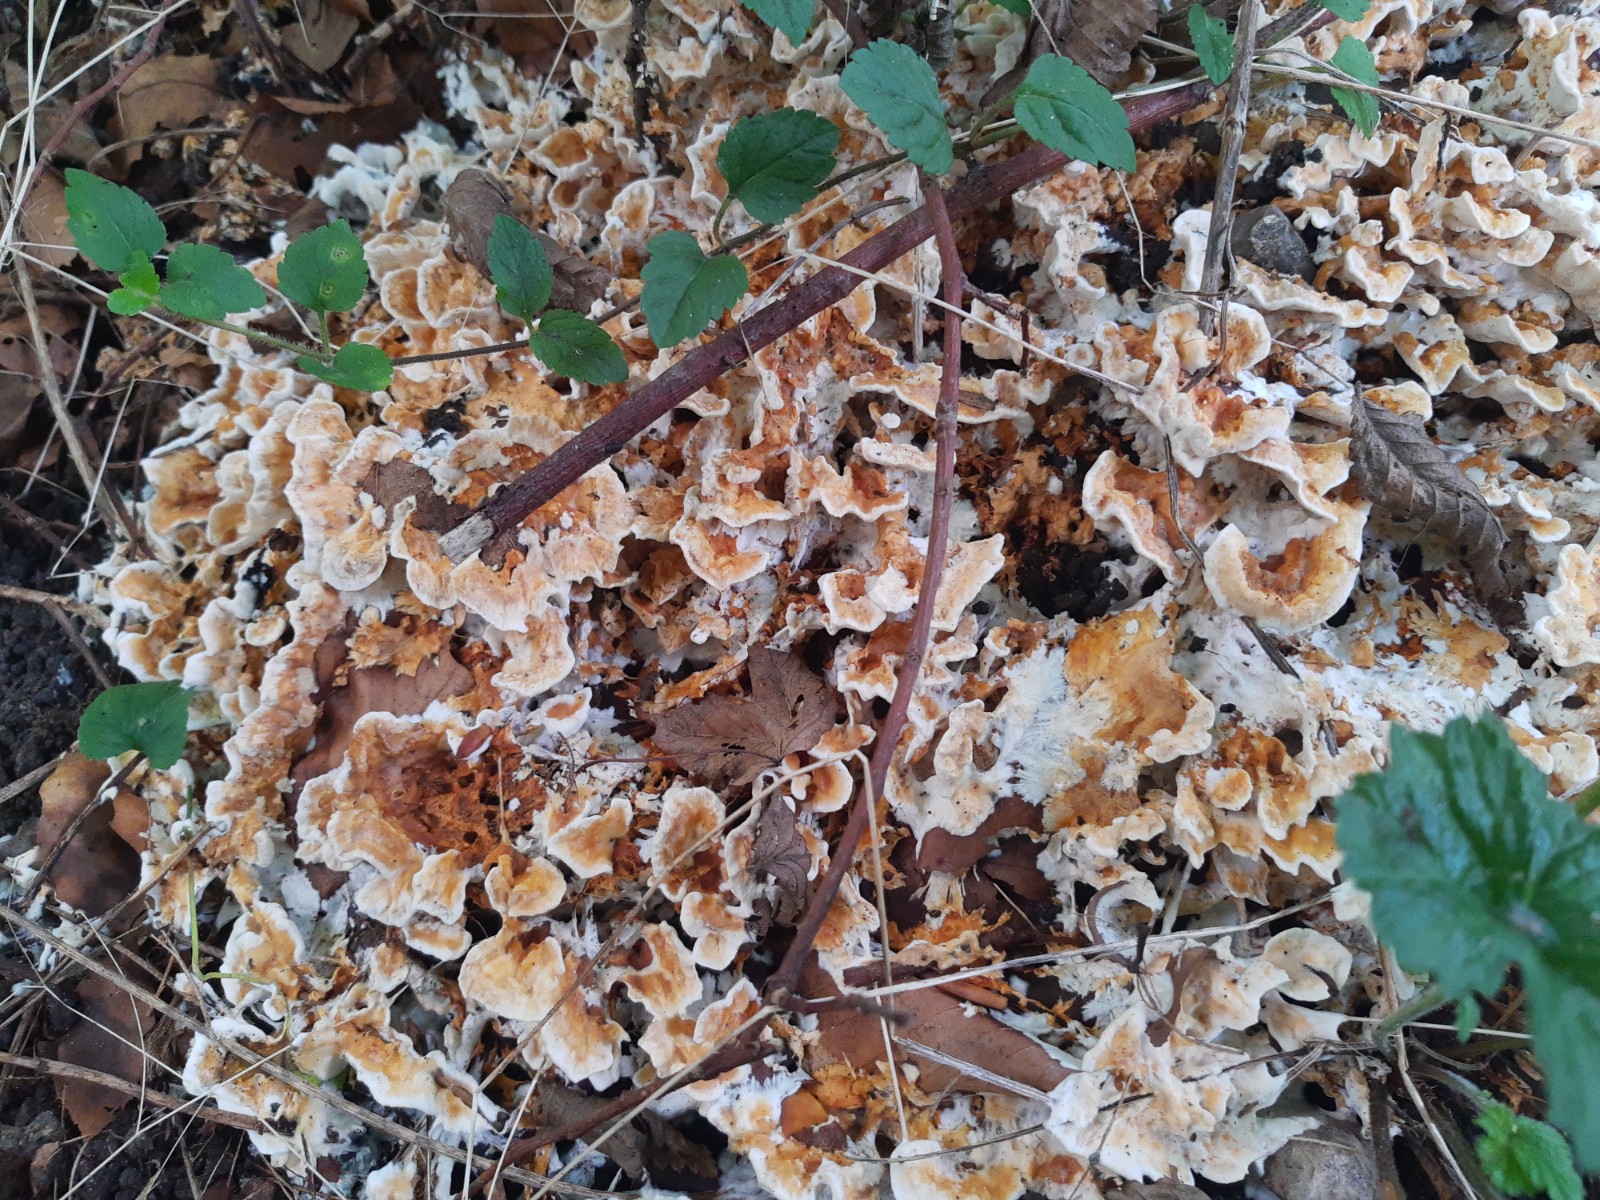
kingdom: Fungi
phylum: Basidiomycota
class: Agaricomycetes
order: Polyporales
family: Steccherinaceae
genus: Loweomyces
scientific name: Loweomyces wynneae
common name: krybende blødporesvamp
